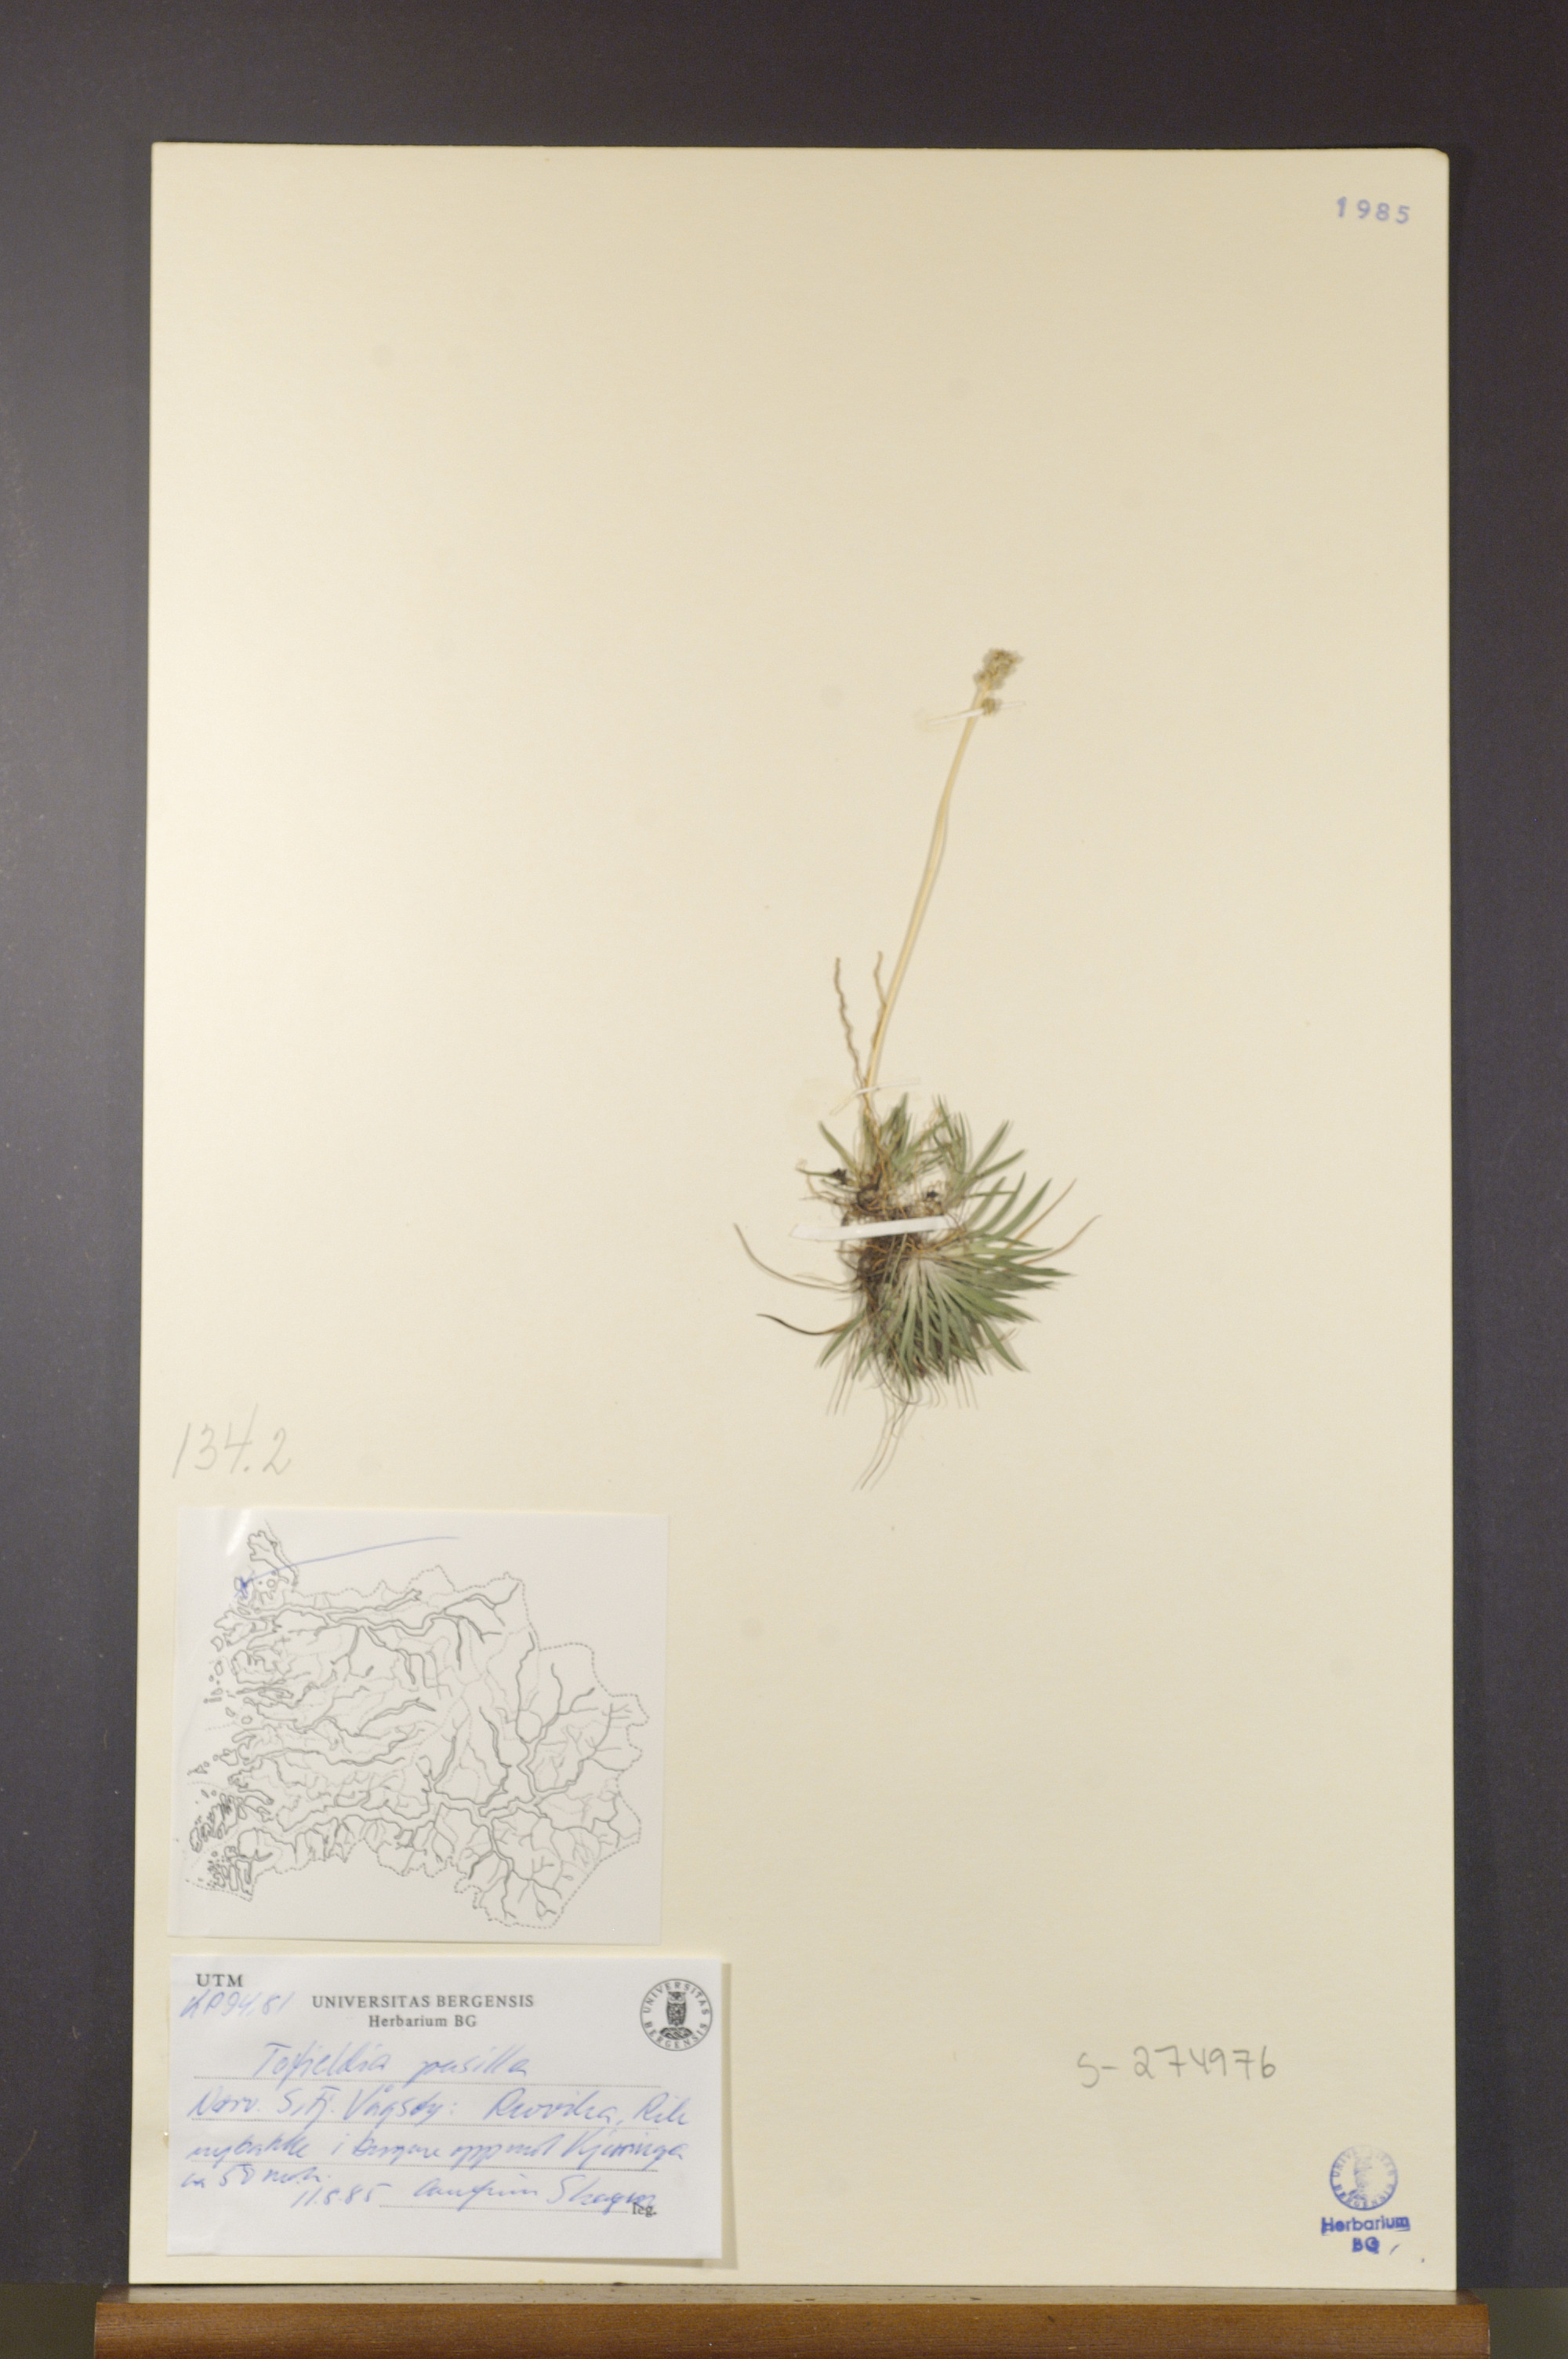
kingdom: Plantae
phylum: Tracheophyta
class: Liliopsida
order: Alismatales
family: Tofieldiaceae
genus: Tofieldia
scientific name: Tofieldia pusilla
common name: Scottish false asphodel
